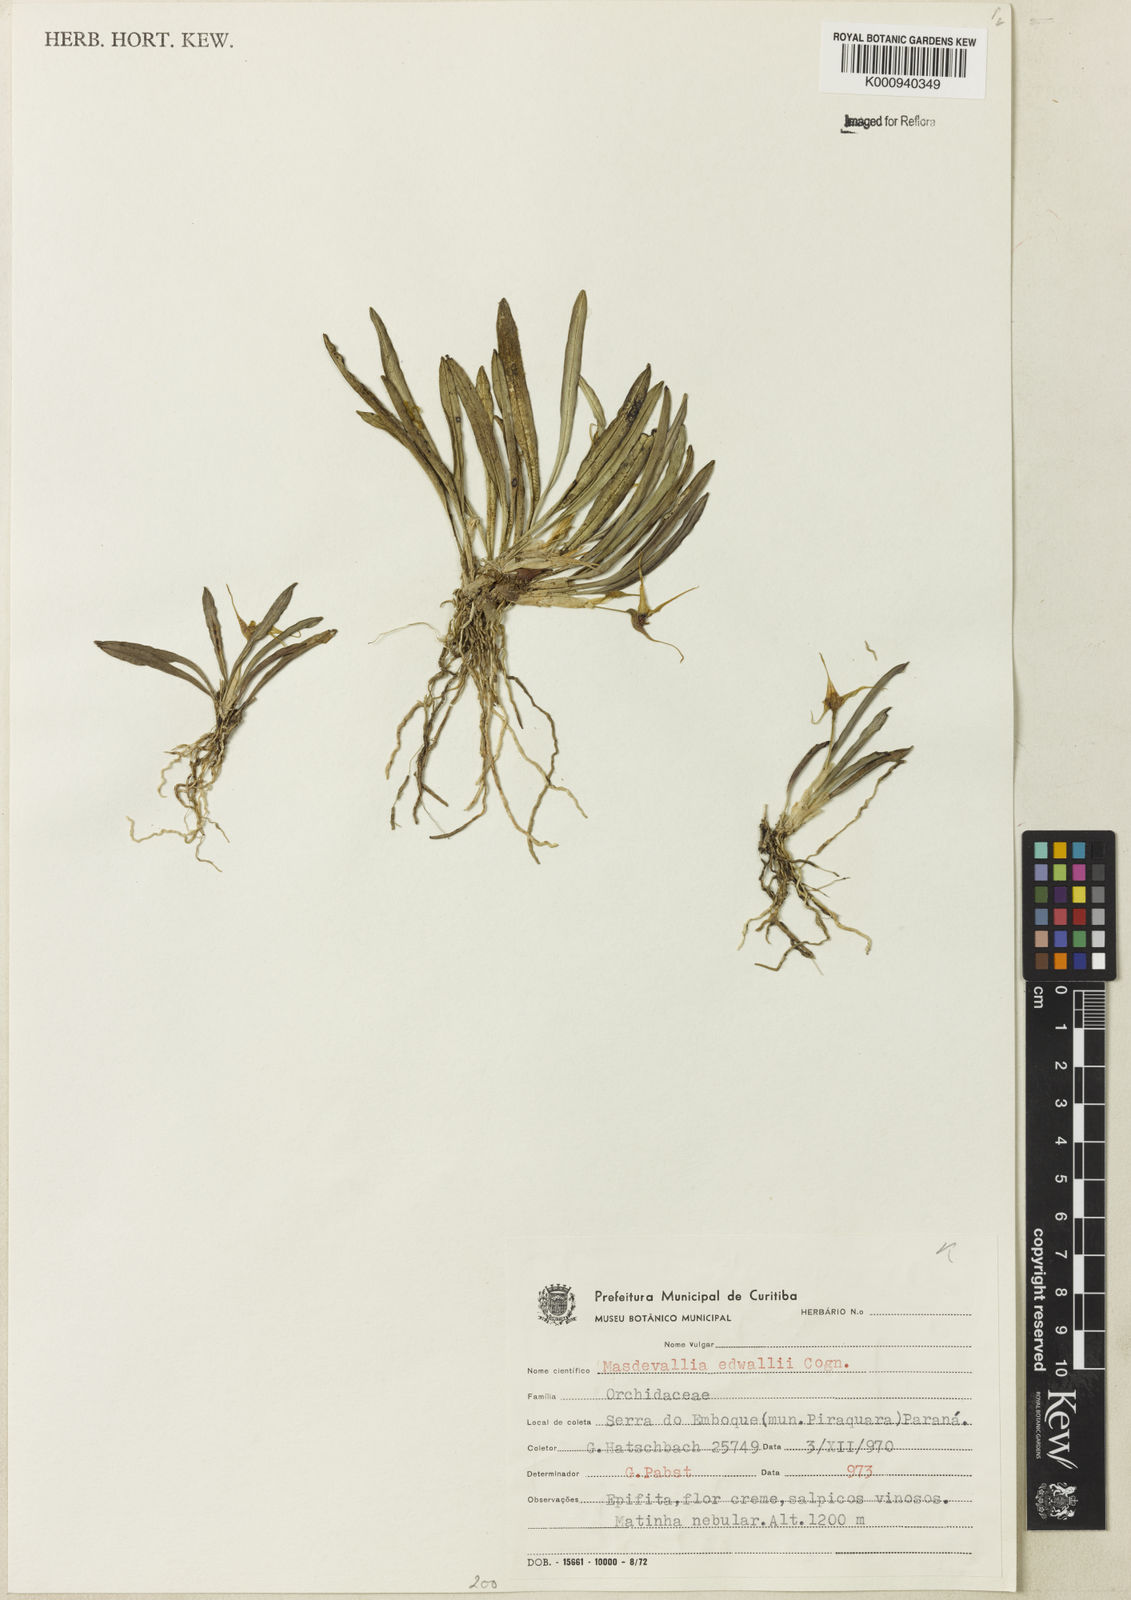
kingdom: Plantae
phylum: Tracheophyta
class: Liliopsida
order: Asparagales
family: Orchidaceae
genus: Dryadella
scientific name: Dryadella edwallii
